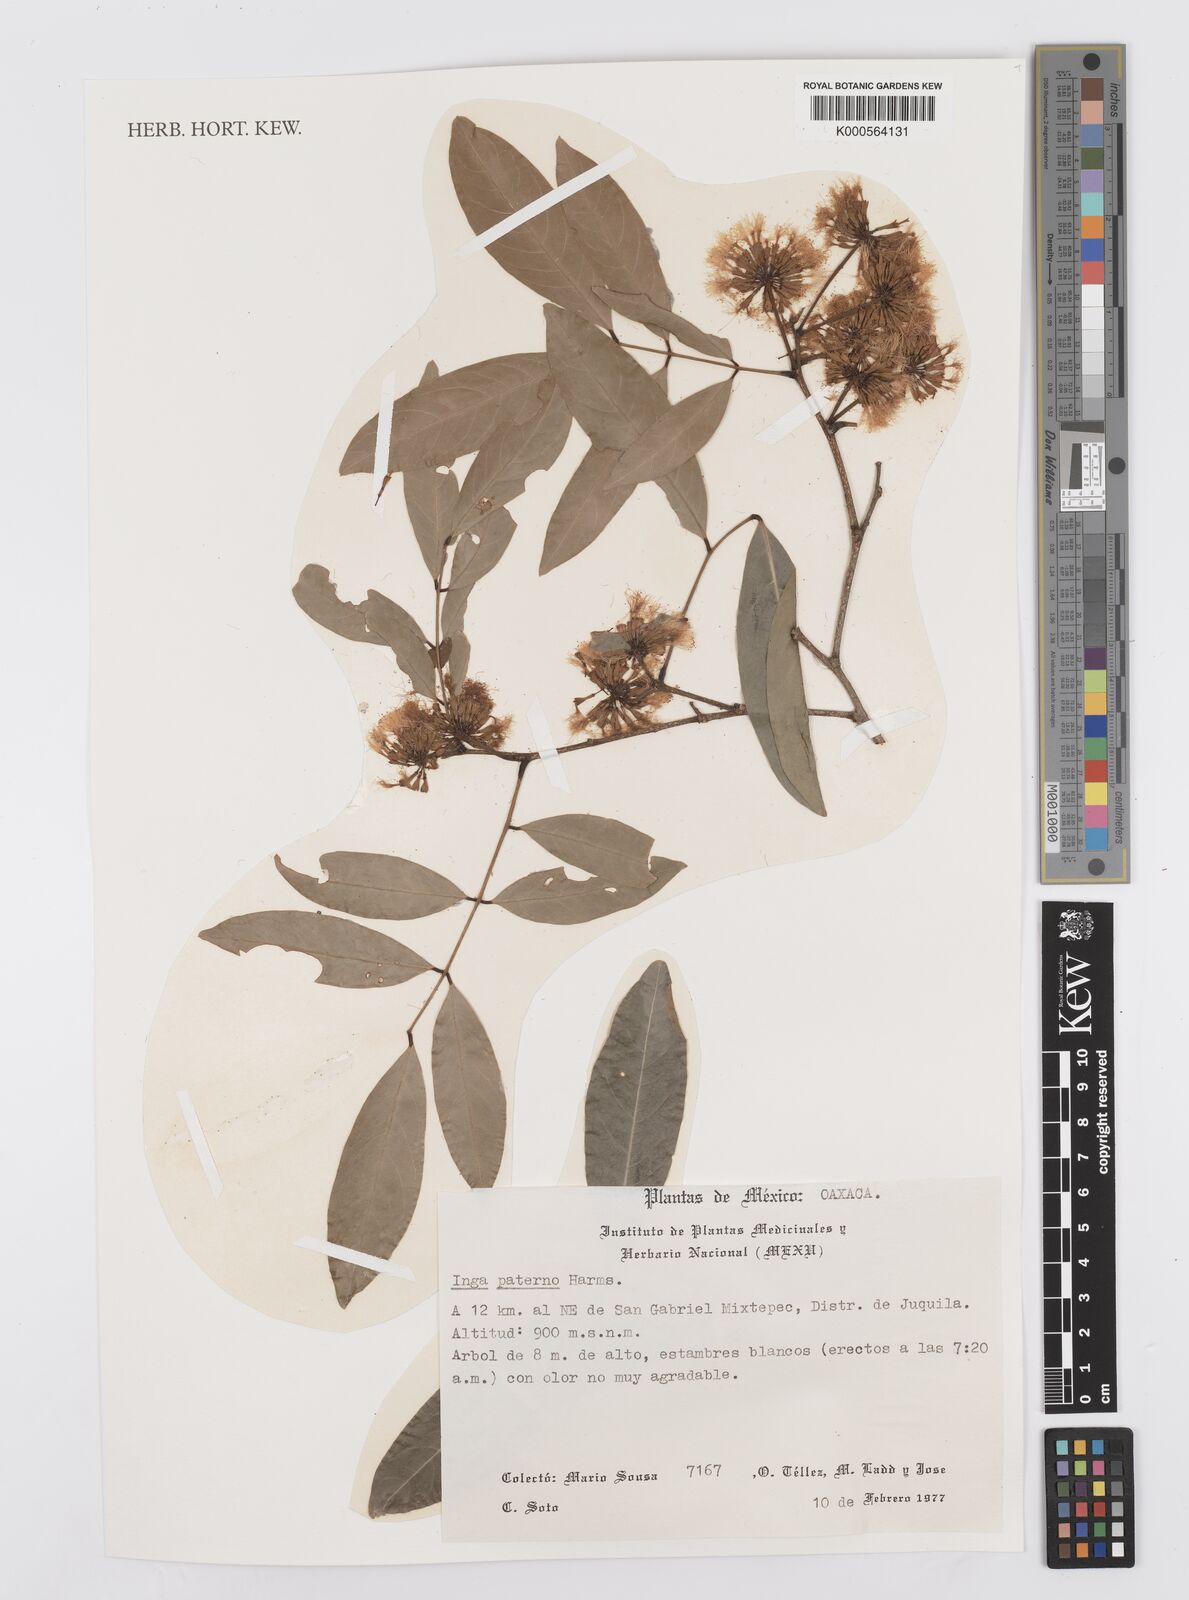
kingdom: Plantae
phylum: Tracheophyta
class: Magnoliopsida
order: Fabales
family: Fabaceae
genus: Inga
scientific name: Inga paterno
